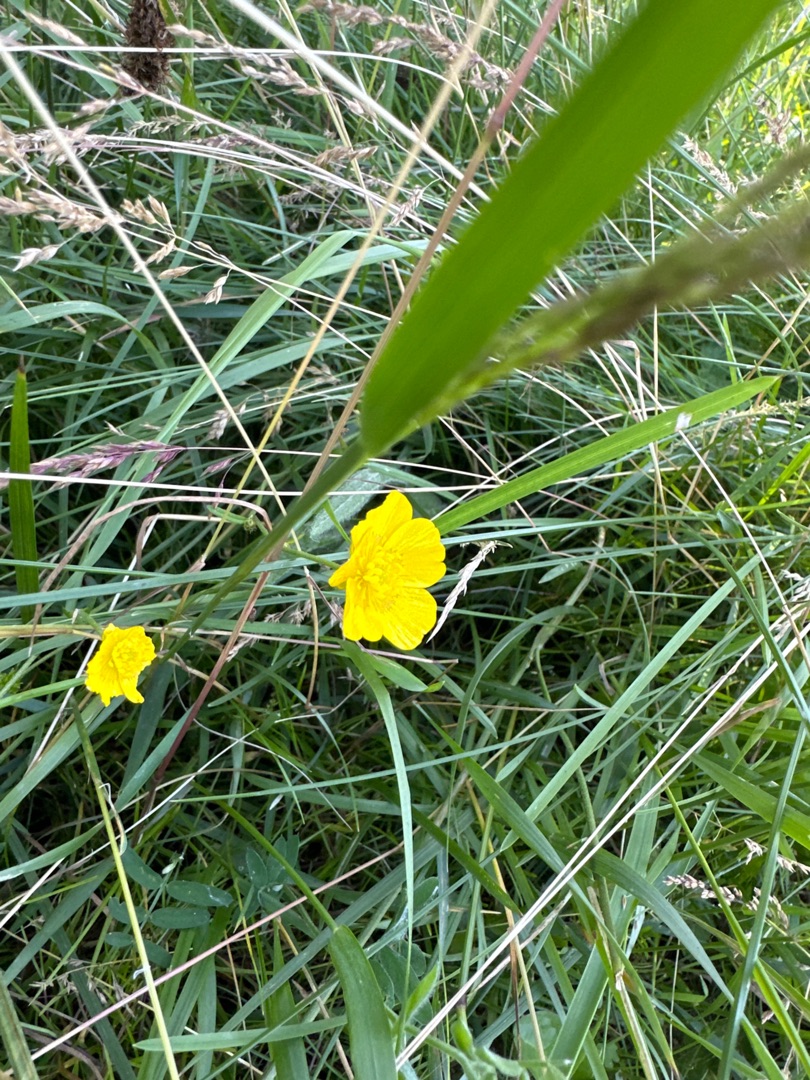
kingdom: Plantae
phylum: Tracheophyta
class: Magnoliopsida
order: Ranunculales
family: Ranunculaceae
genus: Ranunculus
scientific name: Ranunculus
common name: Ranunkelslægten
